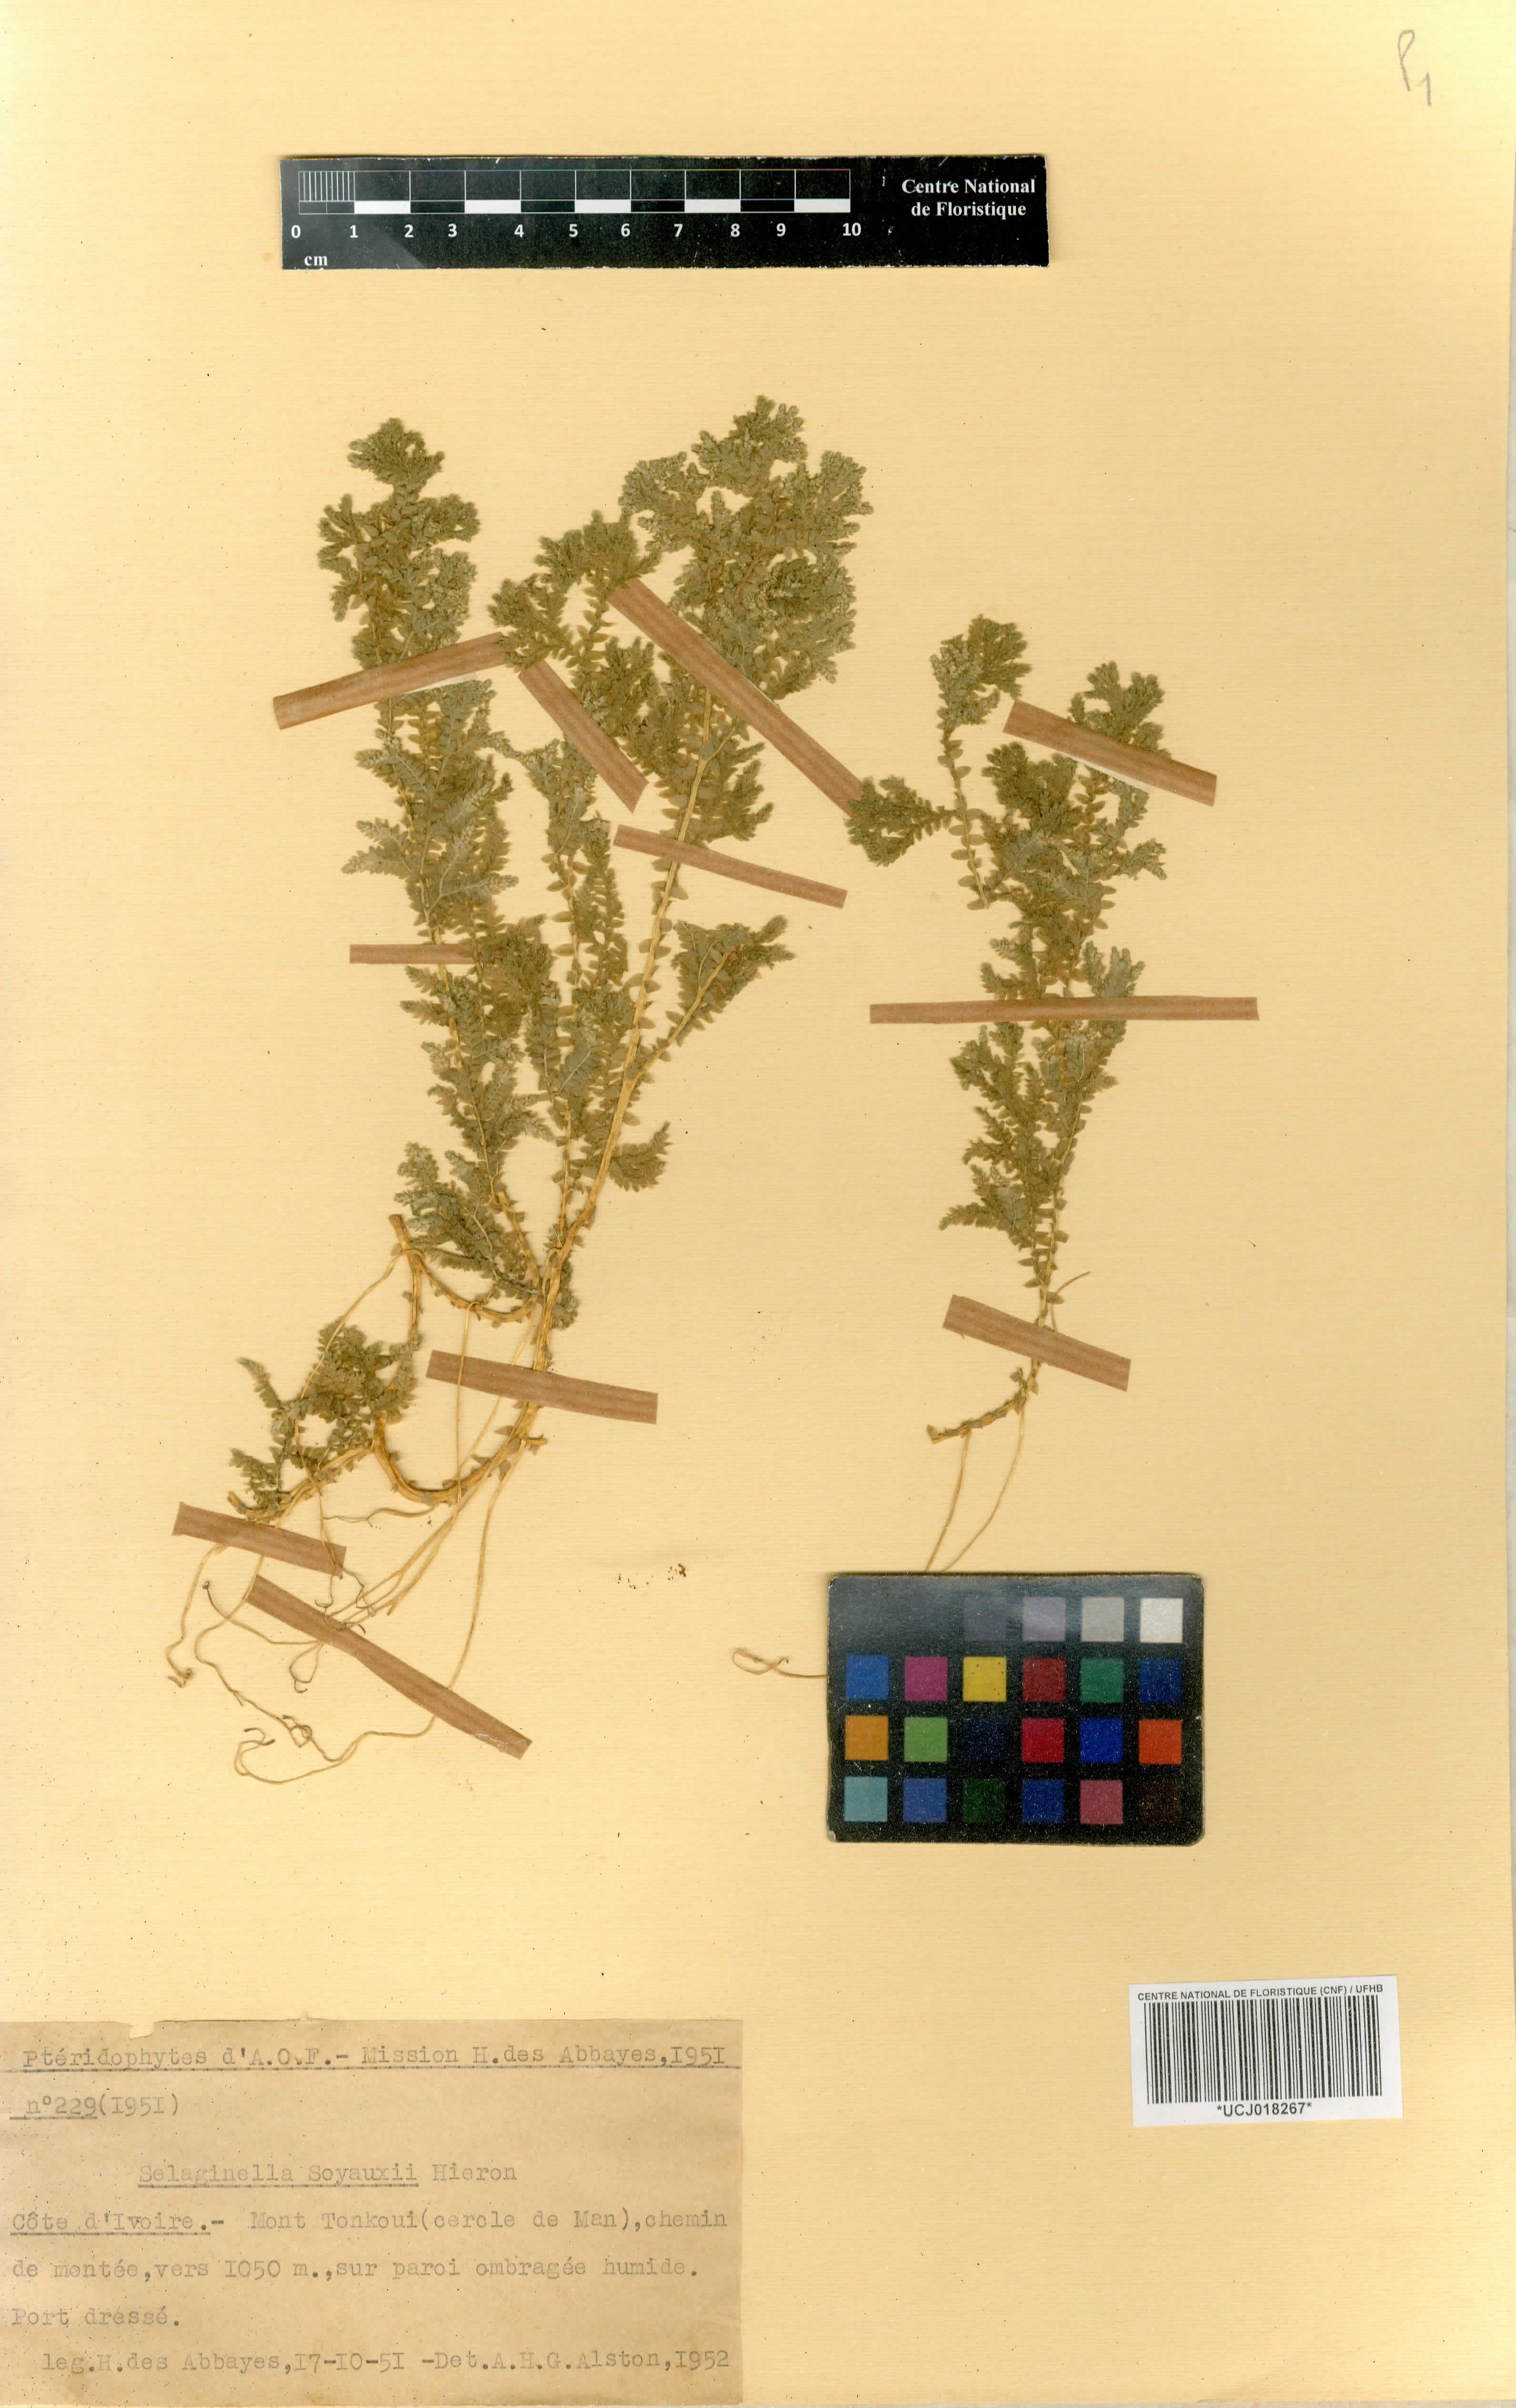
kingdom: Plantae
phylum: Tracheophyta
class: Lycopodiopsida
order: Selaginellales
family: Selaginellaceae
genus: Selaginella
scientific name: Selaginella soyauxii
